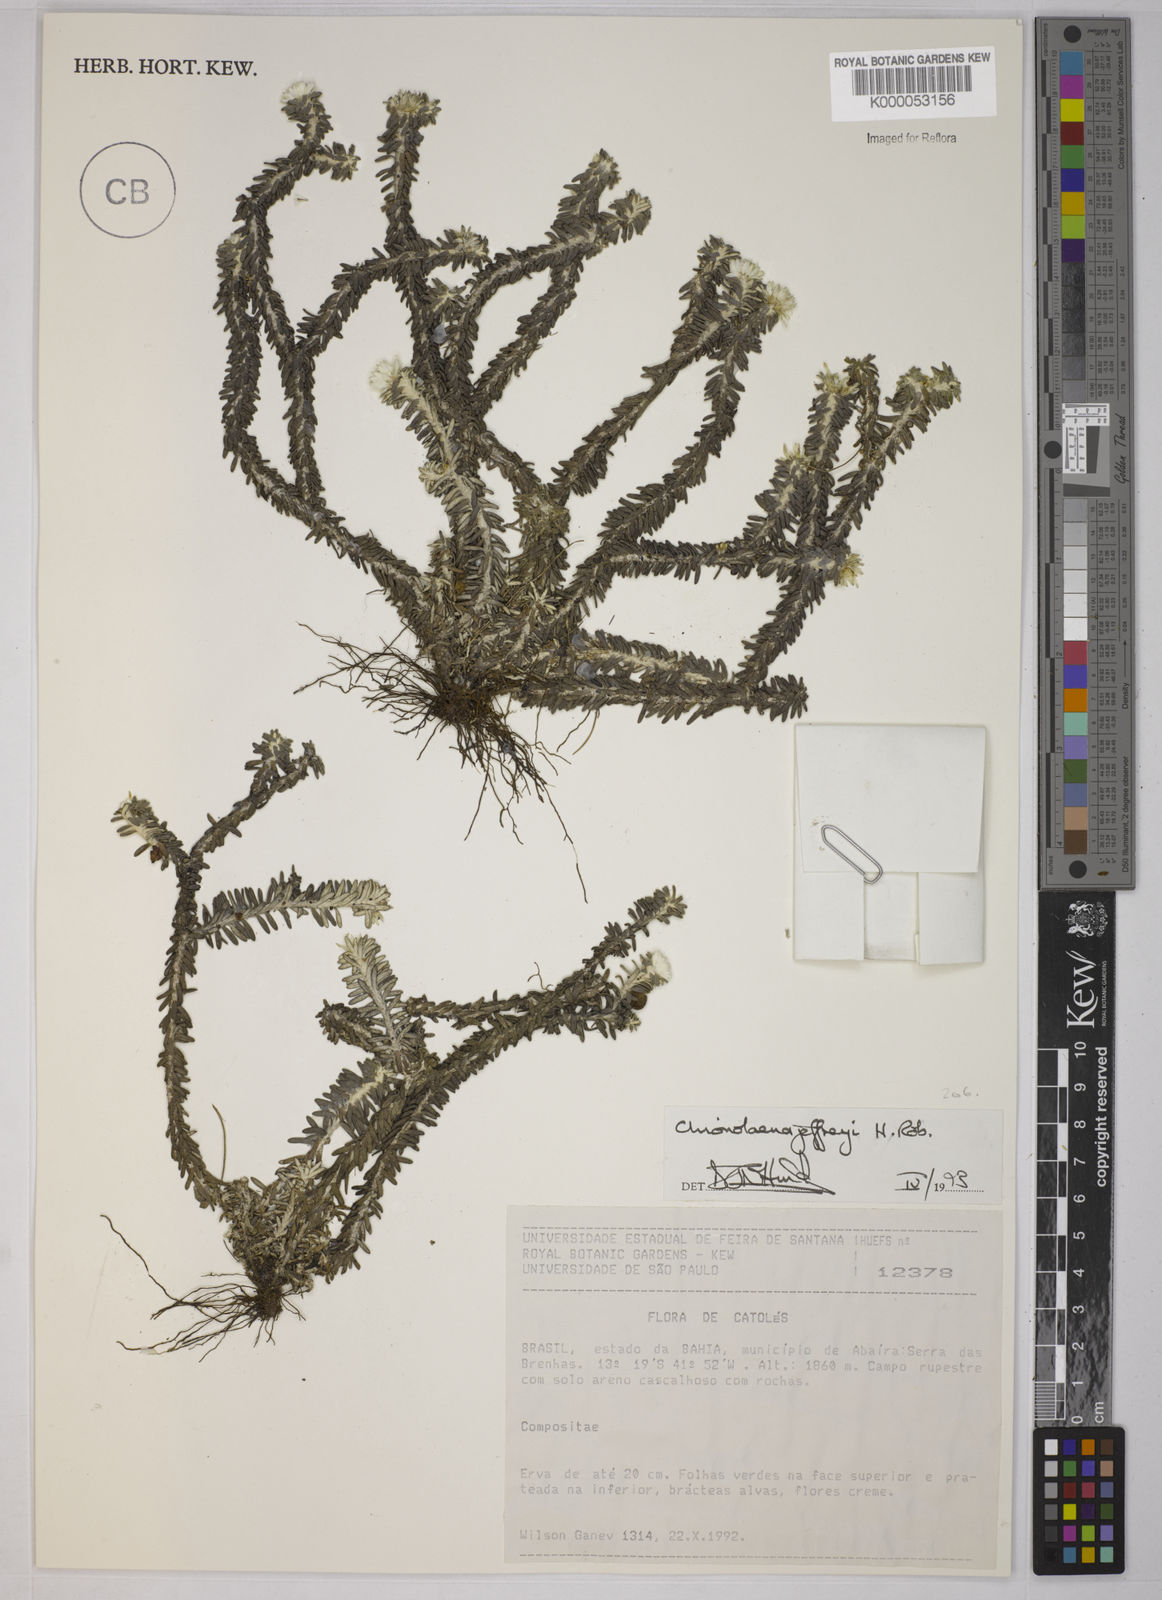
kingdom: Plantae
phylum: Tracheophyta
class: Magnoliopsida
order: Asterales
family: Asteraceae
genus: Chionolaena
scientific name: Chionolaena jeffreyi
